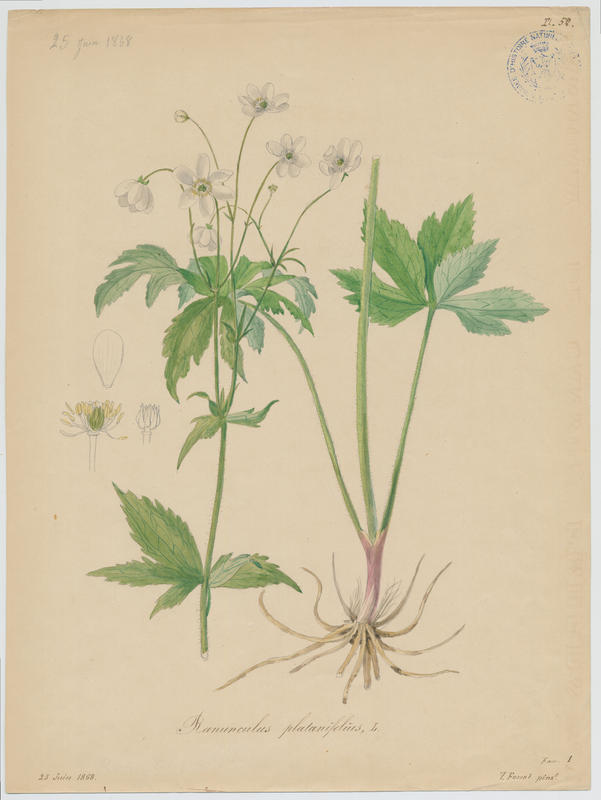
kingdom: Plantae
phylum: Tracheophyta
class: Magnoliopsida
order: Ranunculales
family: Ranunculaceae
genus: Ranunculus
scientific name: Ranunculus platanifolius
